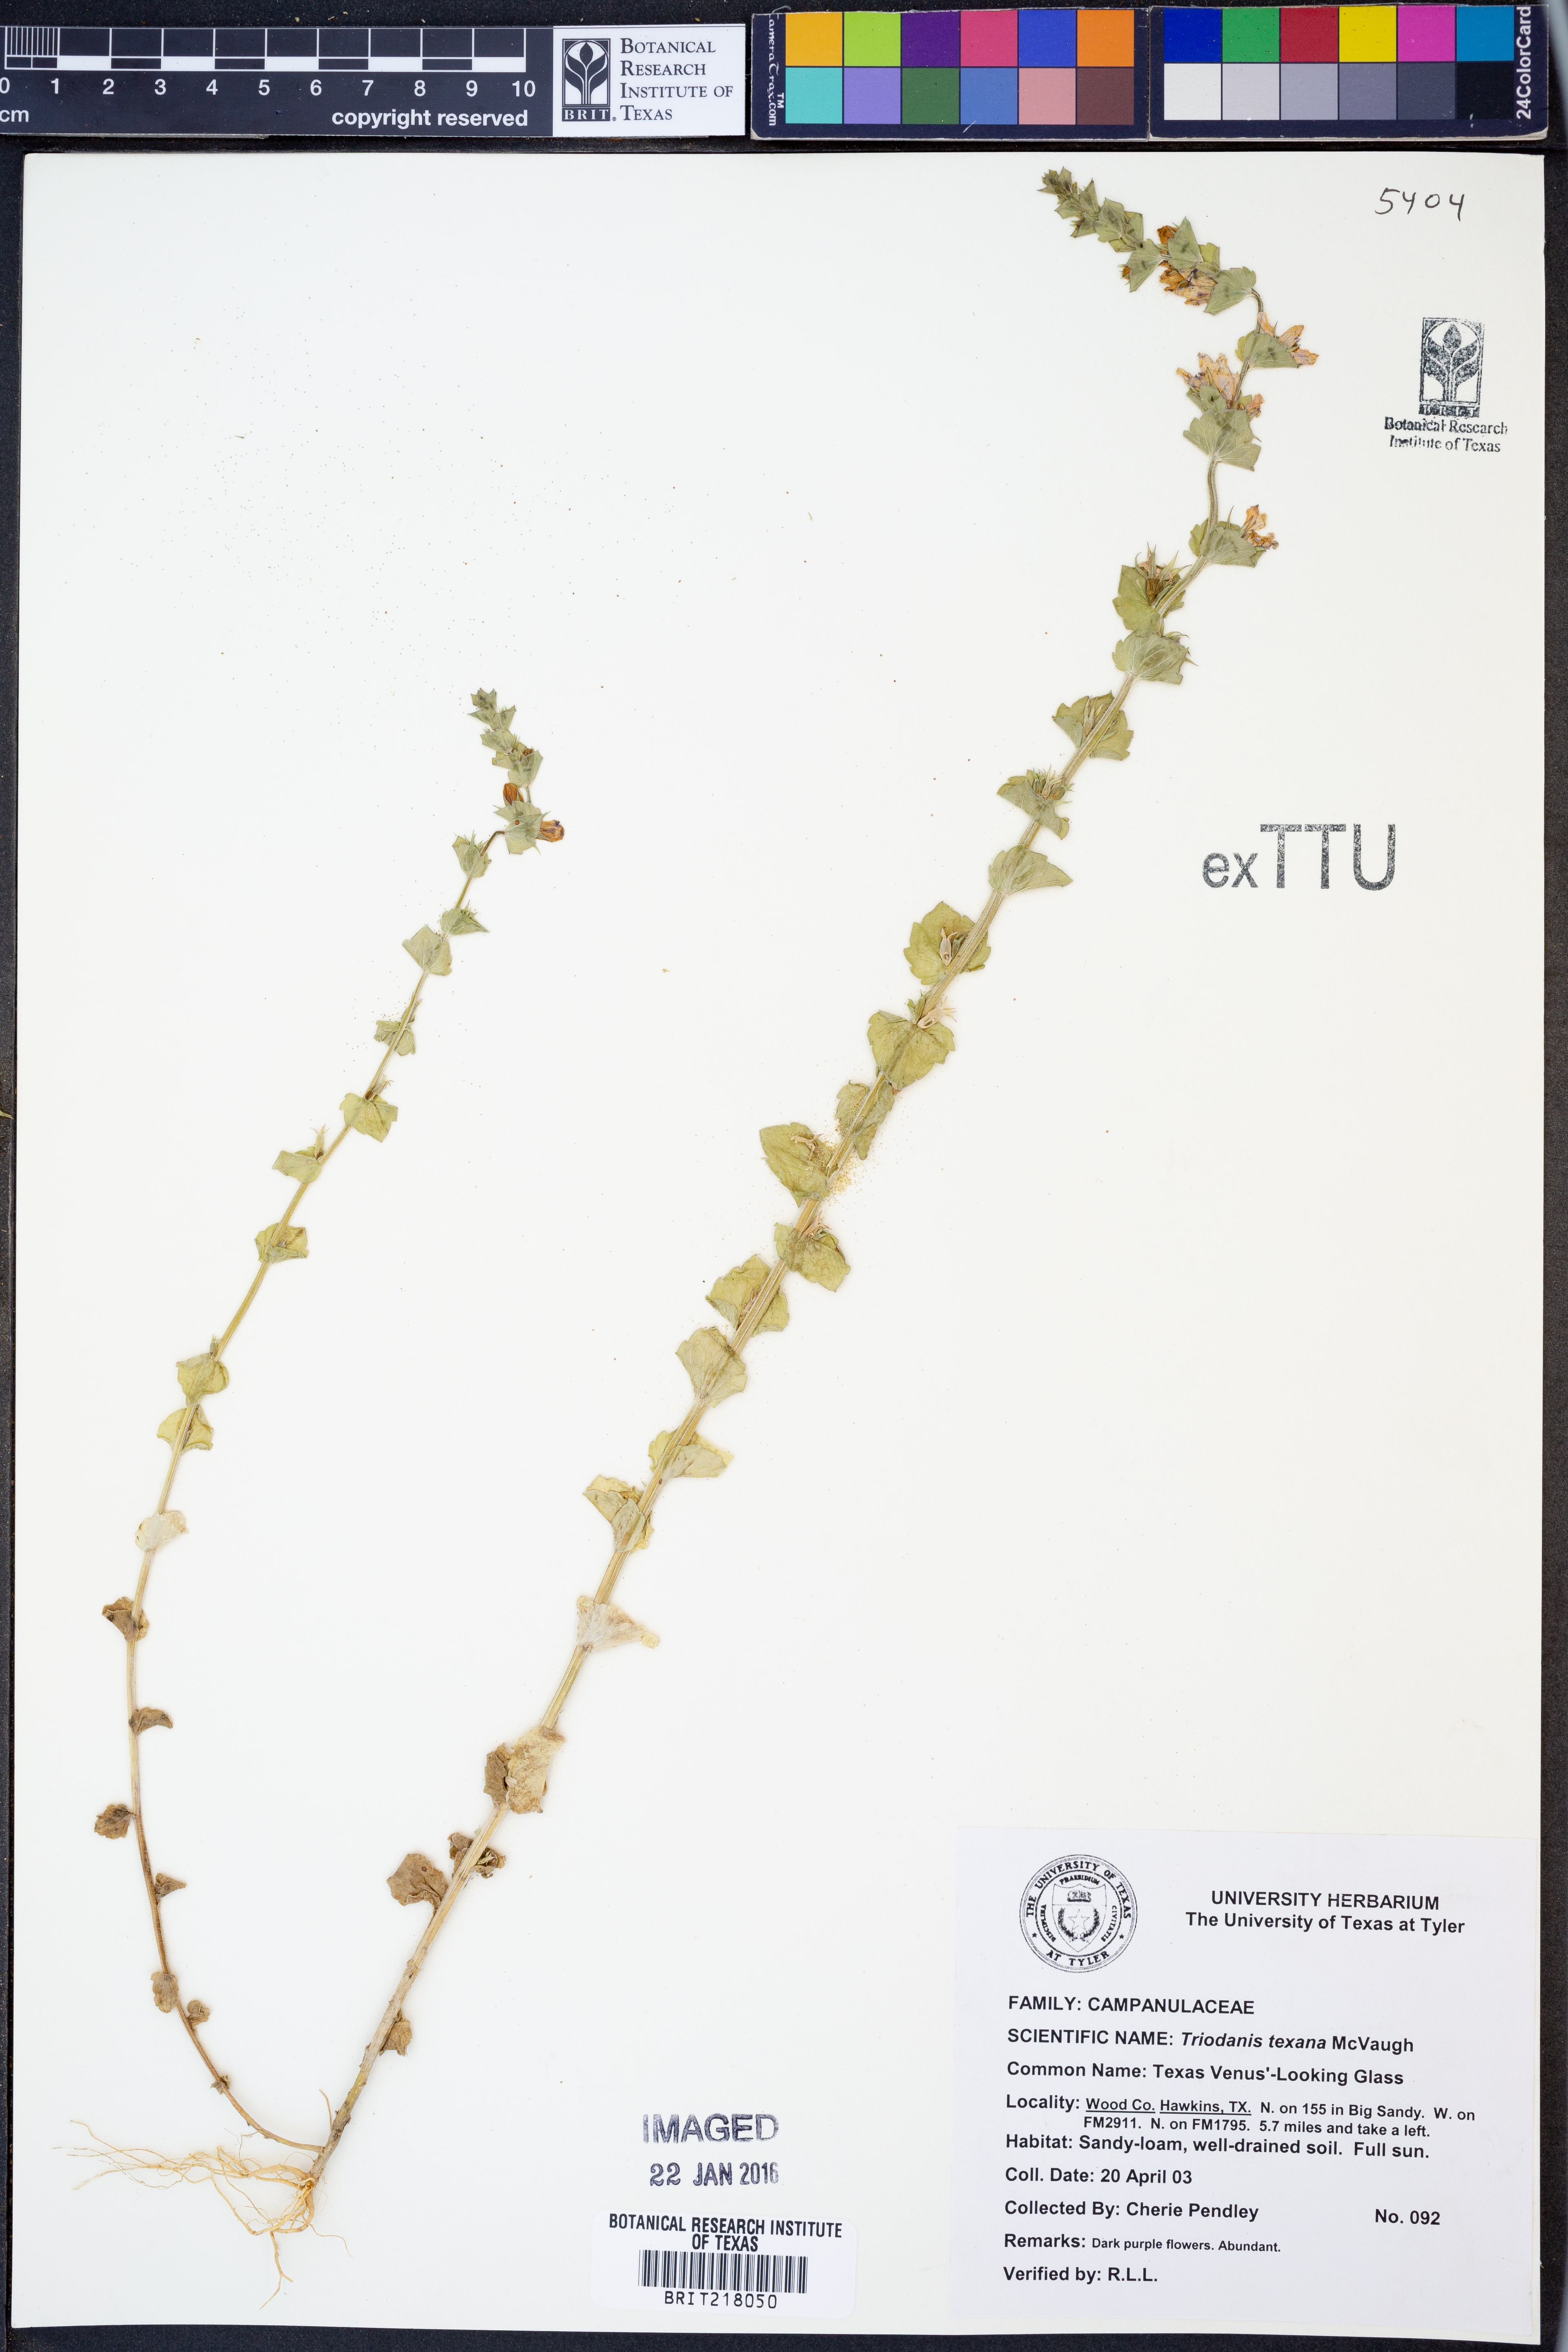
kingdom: Plantae
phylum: Tracheophyta
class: Magnoliopsida
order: Asterales
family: Campanulaceae
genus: Triodanis
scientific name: Triodanis texana
